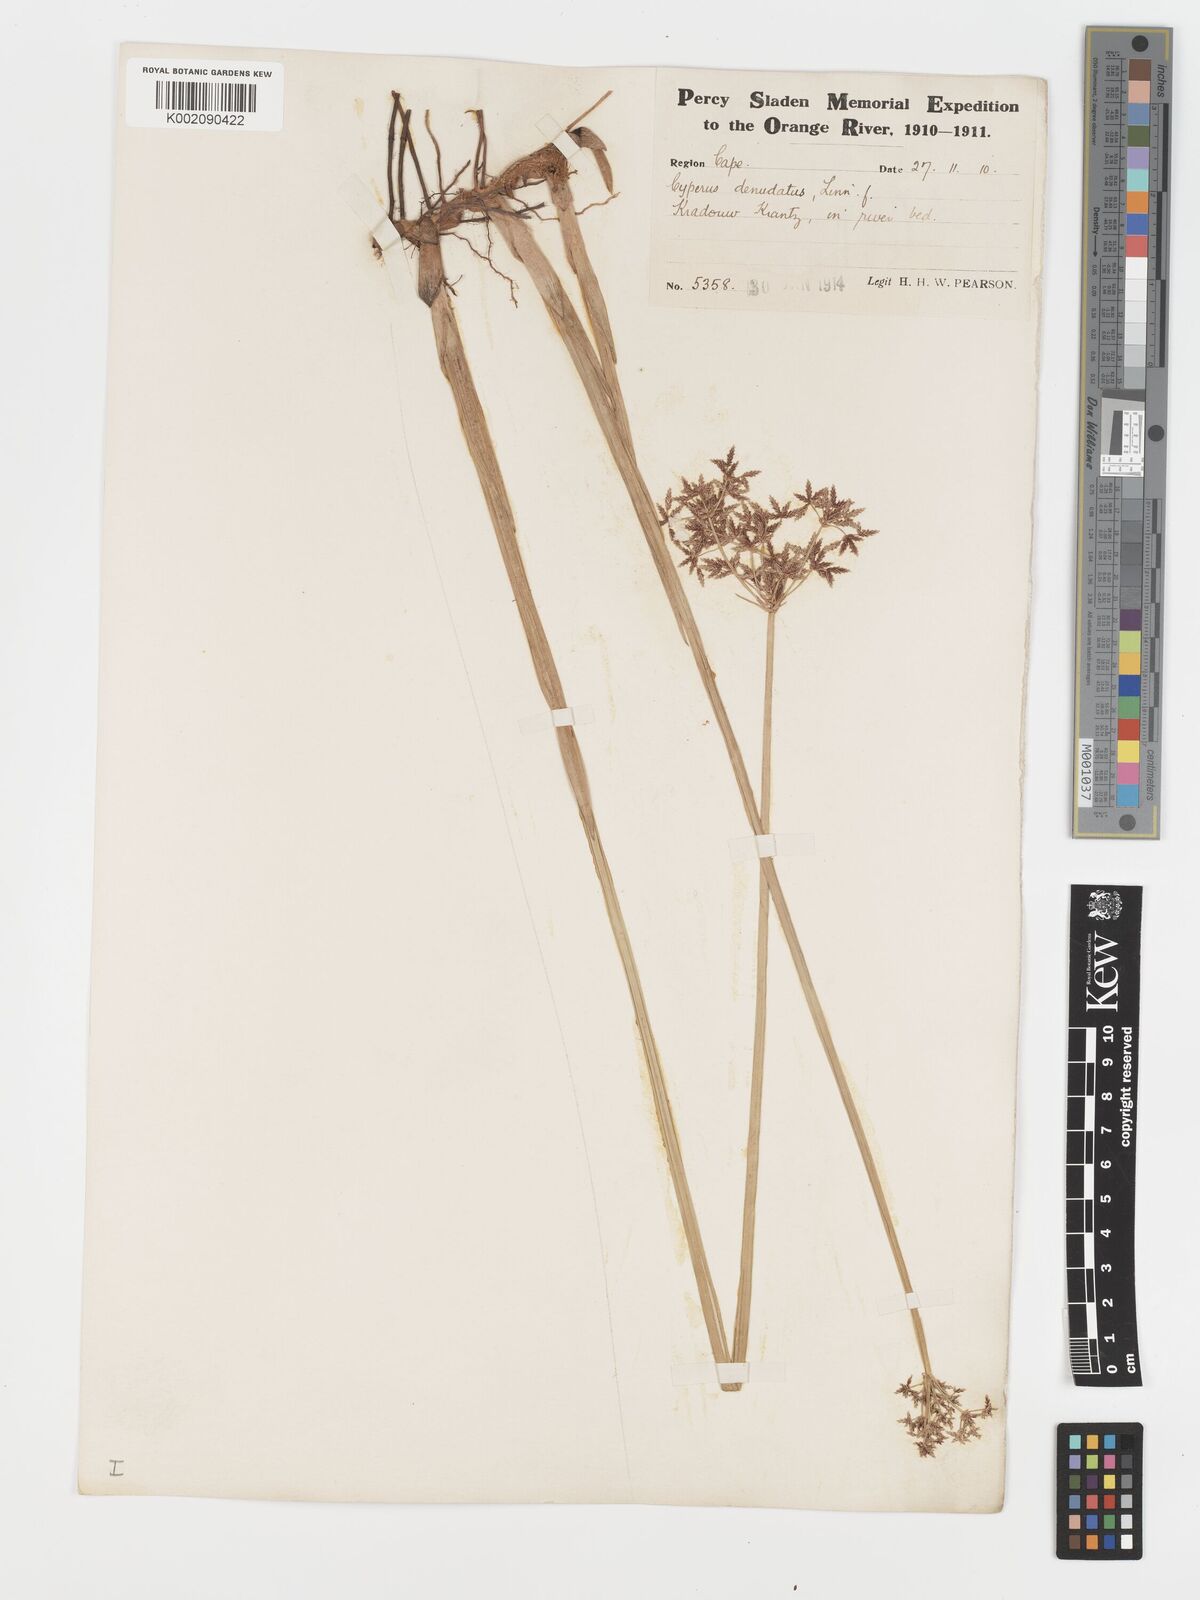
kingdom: Plantae
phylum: Tracheophyta
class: Liliopsida
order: Poales
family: Cyperaceae
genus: Cyperus
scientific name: Cyperus denudatus
